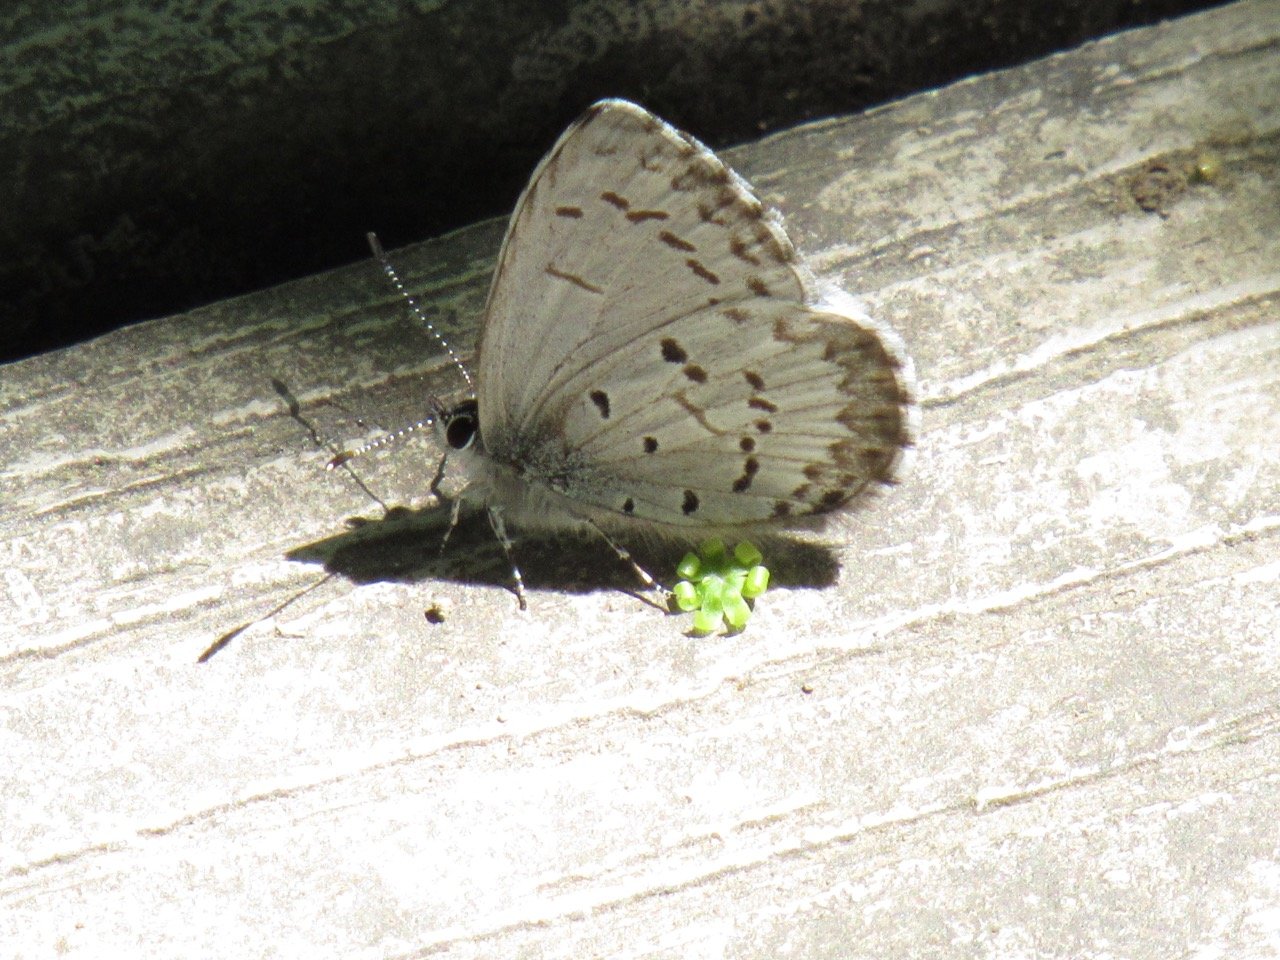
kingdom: Animalia
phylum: Arthropoda
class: Insecta
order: Lepidoptera
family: Lycaenidae
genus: Celastrina
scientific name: Celastrina
